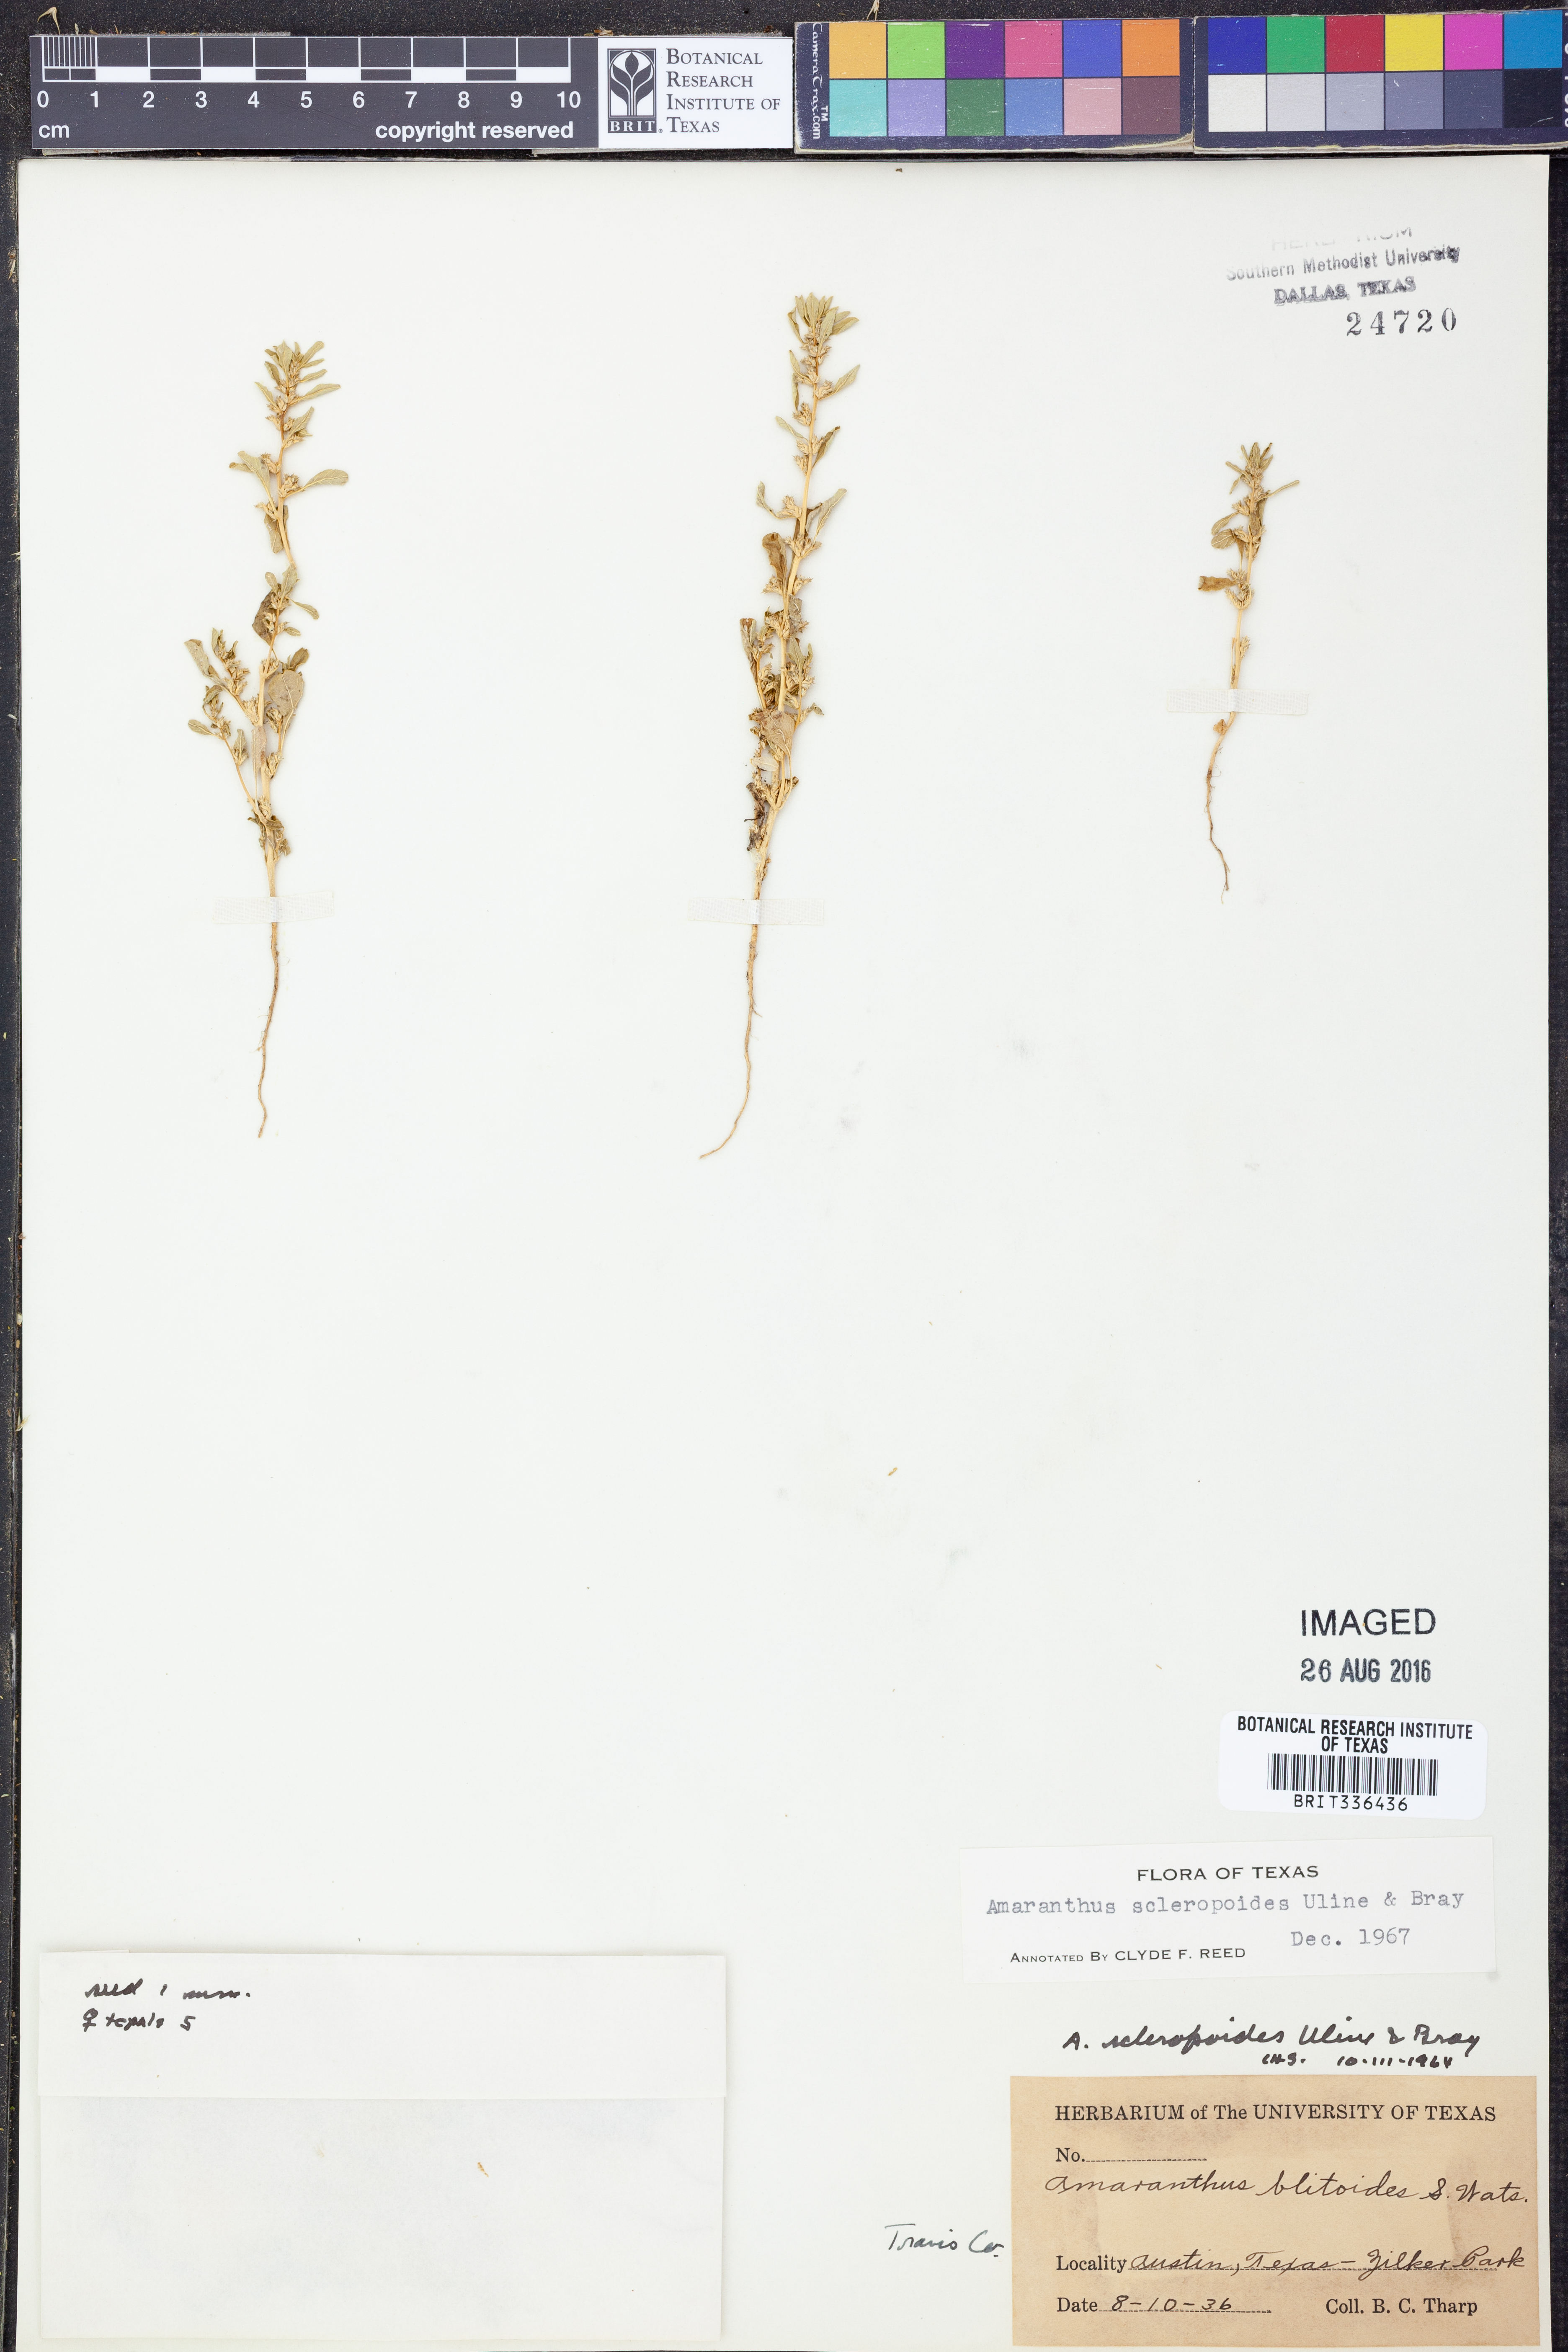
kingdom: Plantae
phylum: Tracheophyta
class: Magnoliopsida
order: Caryophyllales
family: Amaranthaceae
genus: Amaranthus
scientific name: Amaranthus scleropoides
